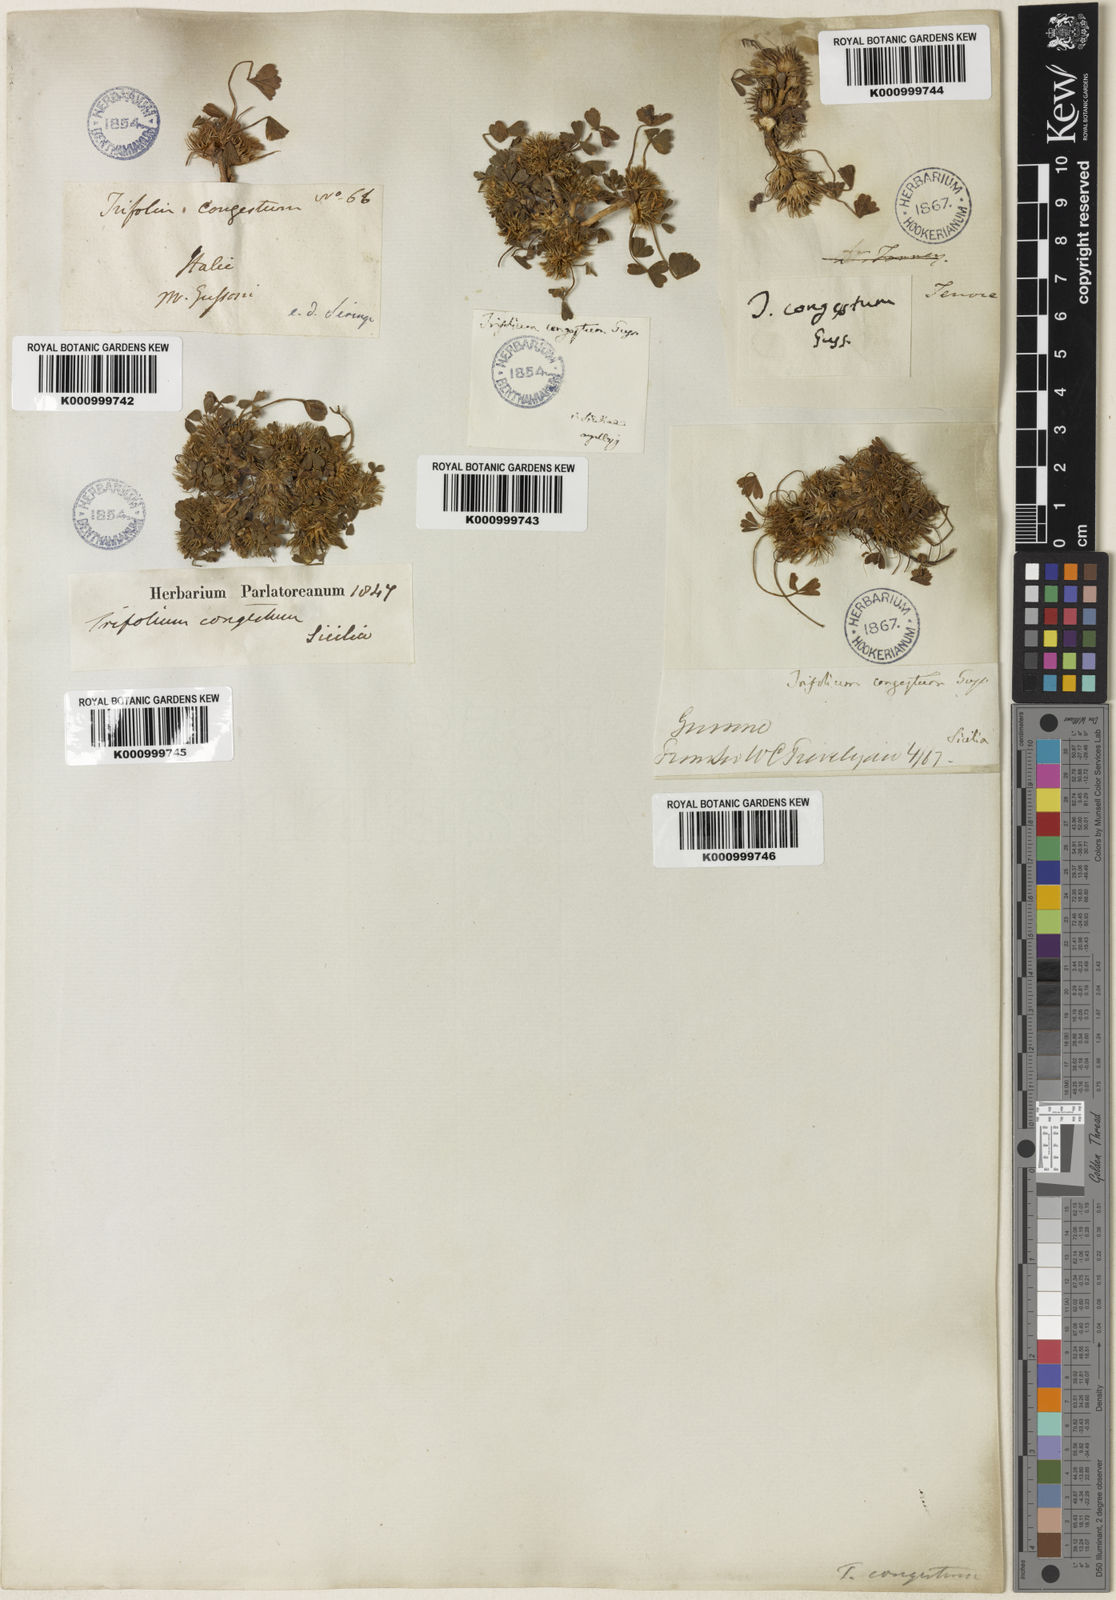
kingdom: Plantae
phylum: Tracheophyta
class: Magnoliopsida
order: Fabales
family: Fabaceae
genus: Trifolium
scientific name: Trifolium congestum
